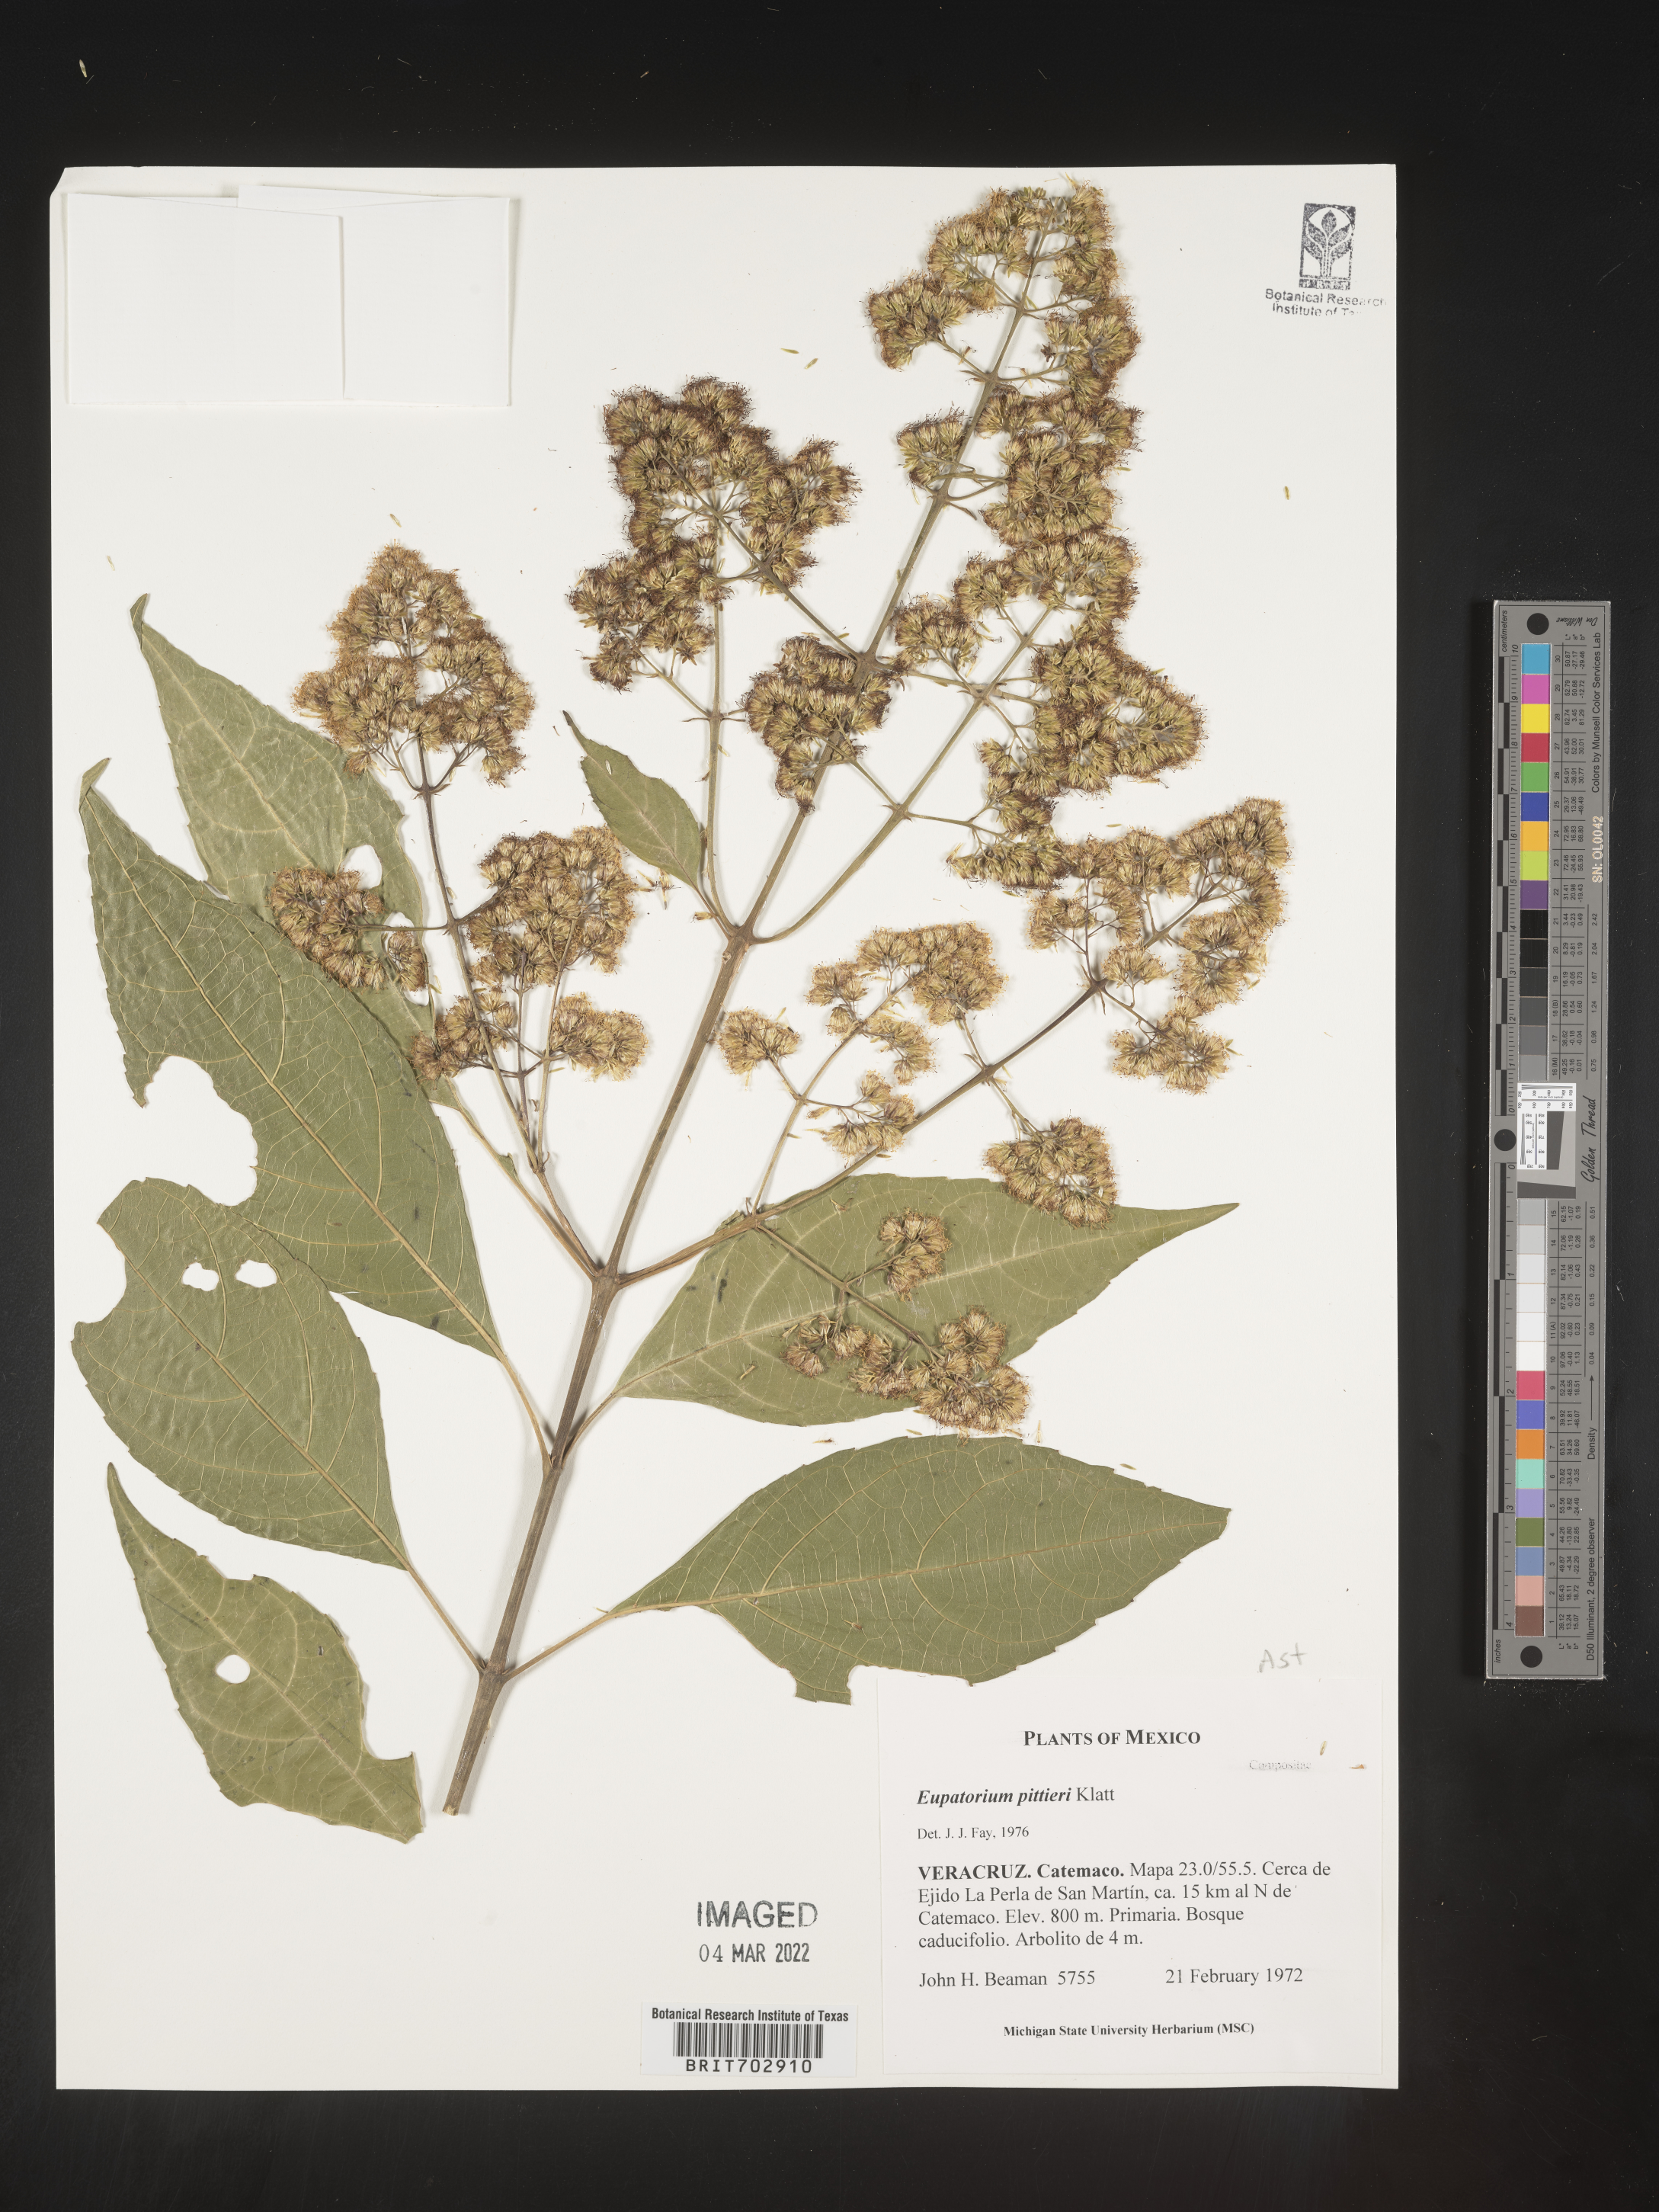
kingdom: Plantae
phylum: Tracheophyta
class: Magnoliopsida
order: Asterales
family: Asteraceae
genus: Eupatorium
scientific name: Eupatorium
